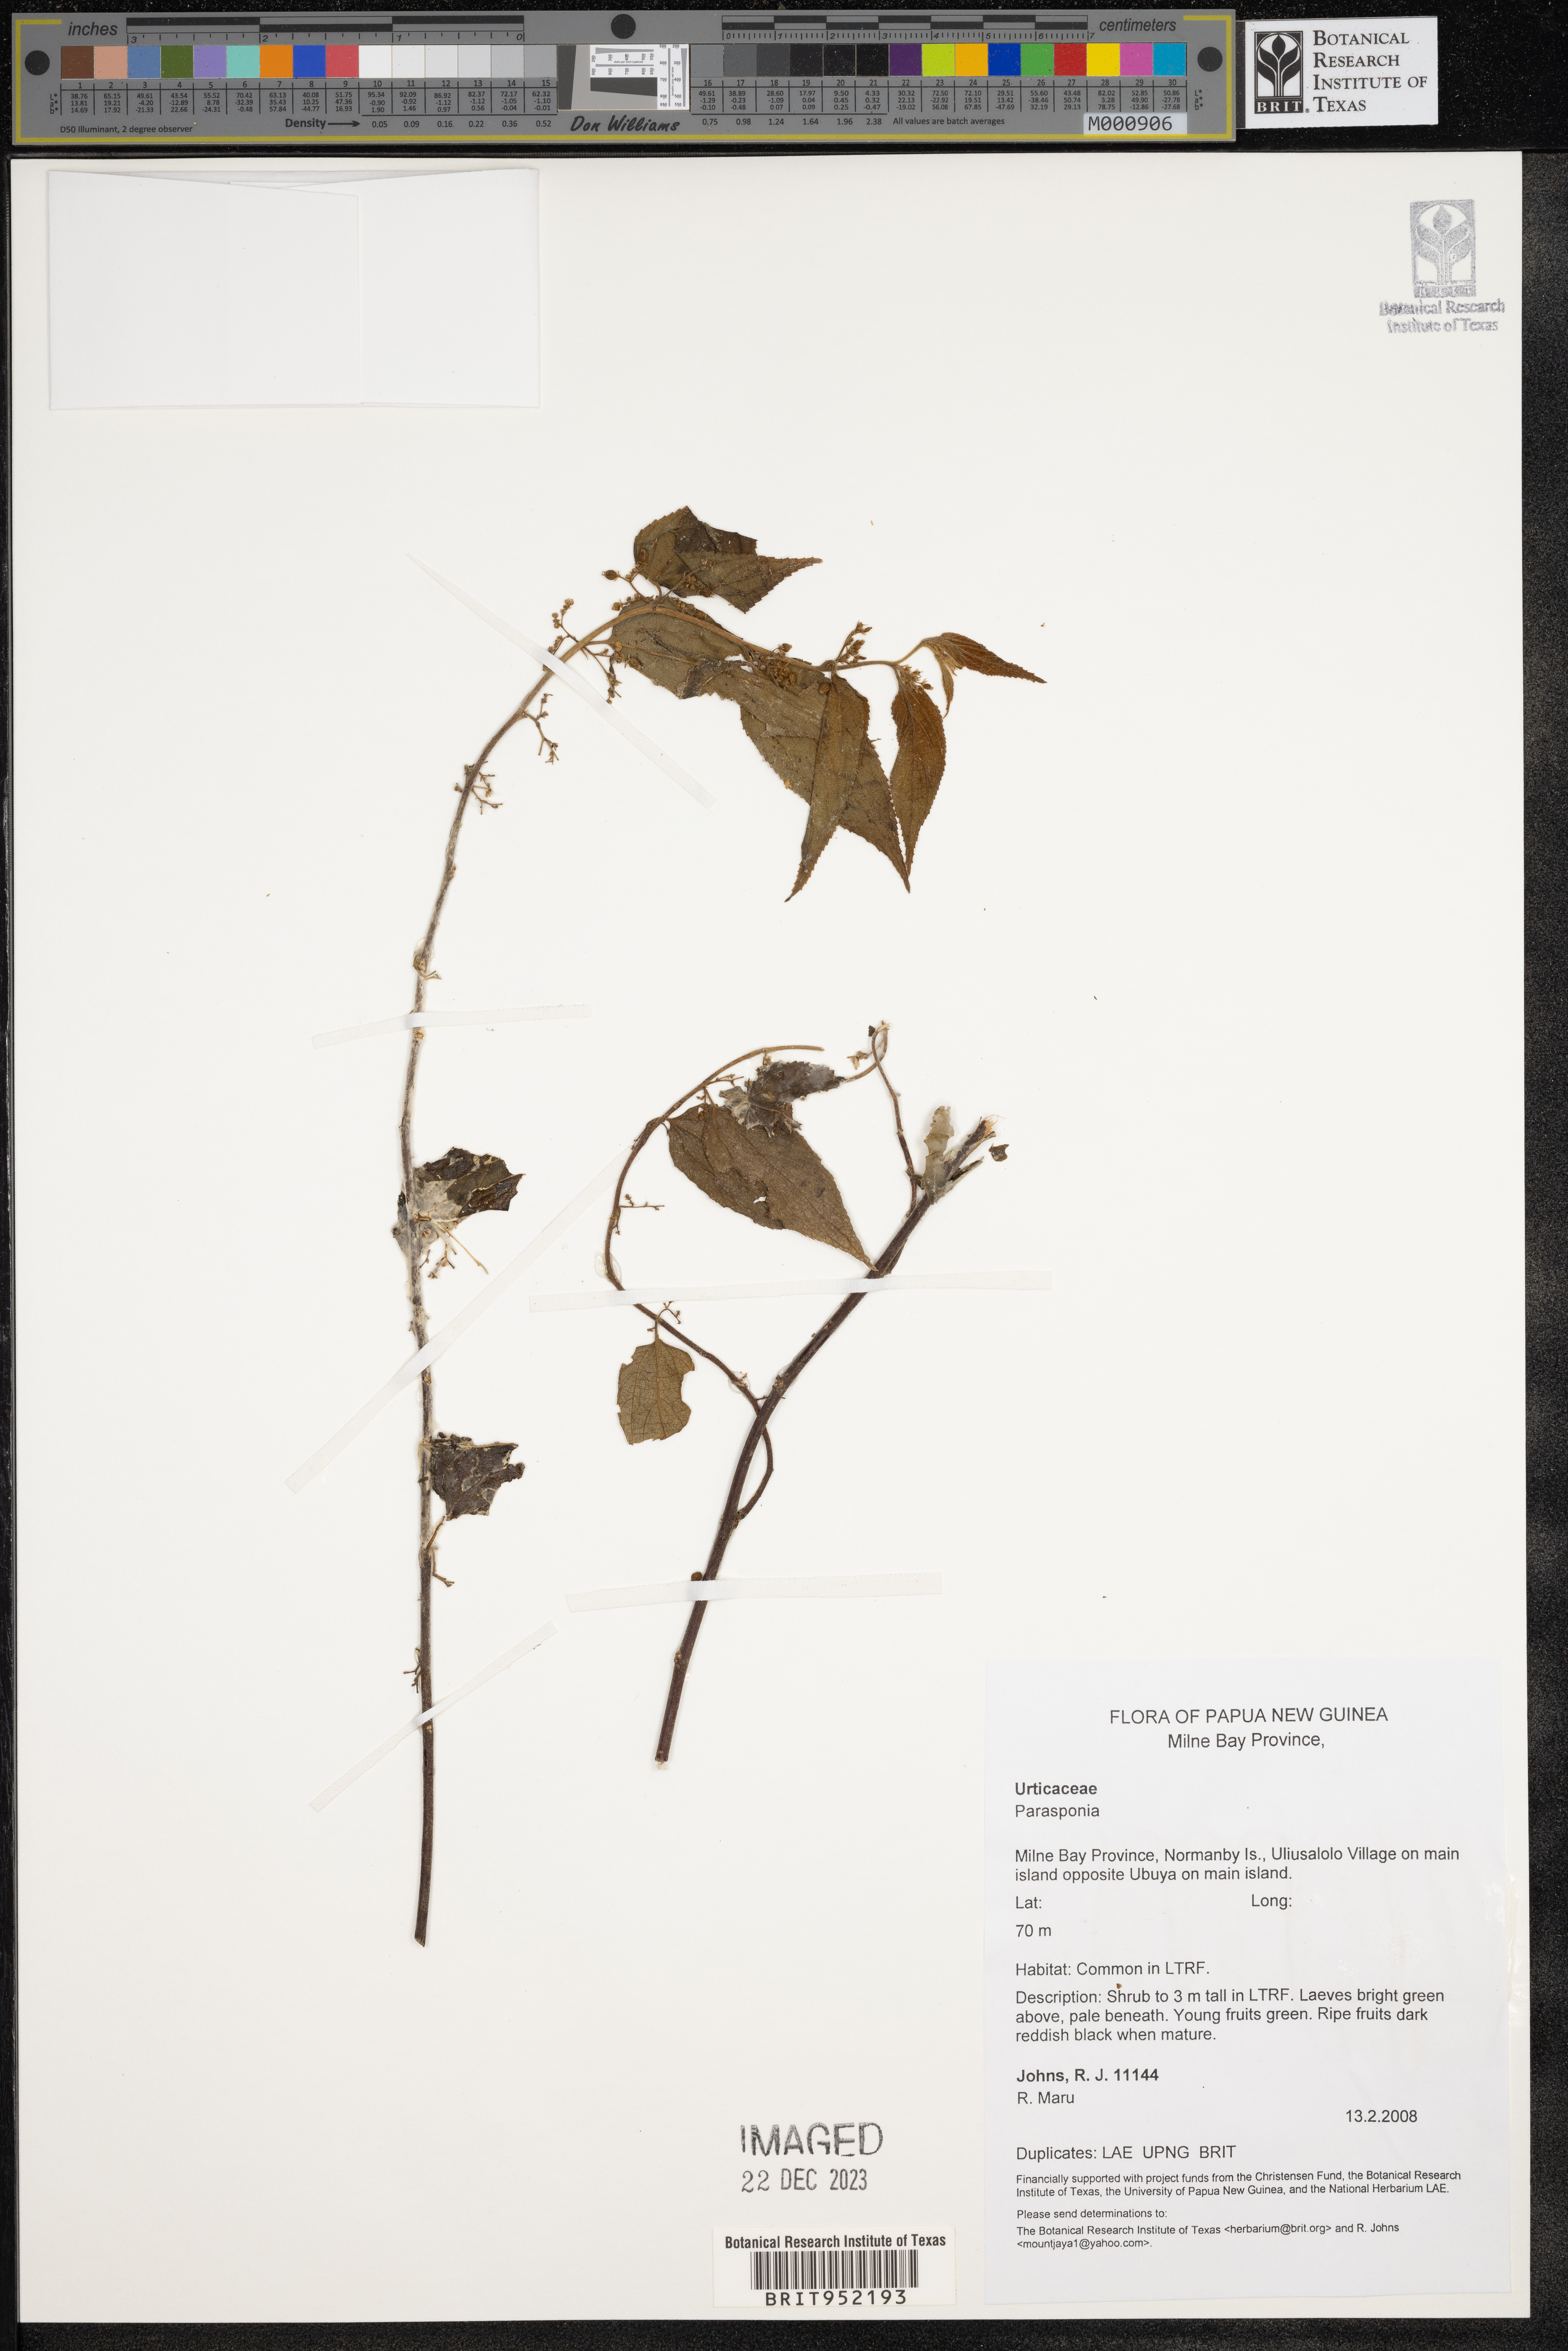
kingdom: Plantae
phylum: Tracheophyta
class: Magnoliopsida
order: Rosales
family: Cannabaceae
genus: Trema
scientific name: Trema
